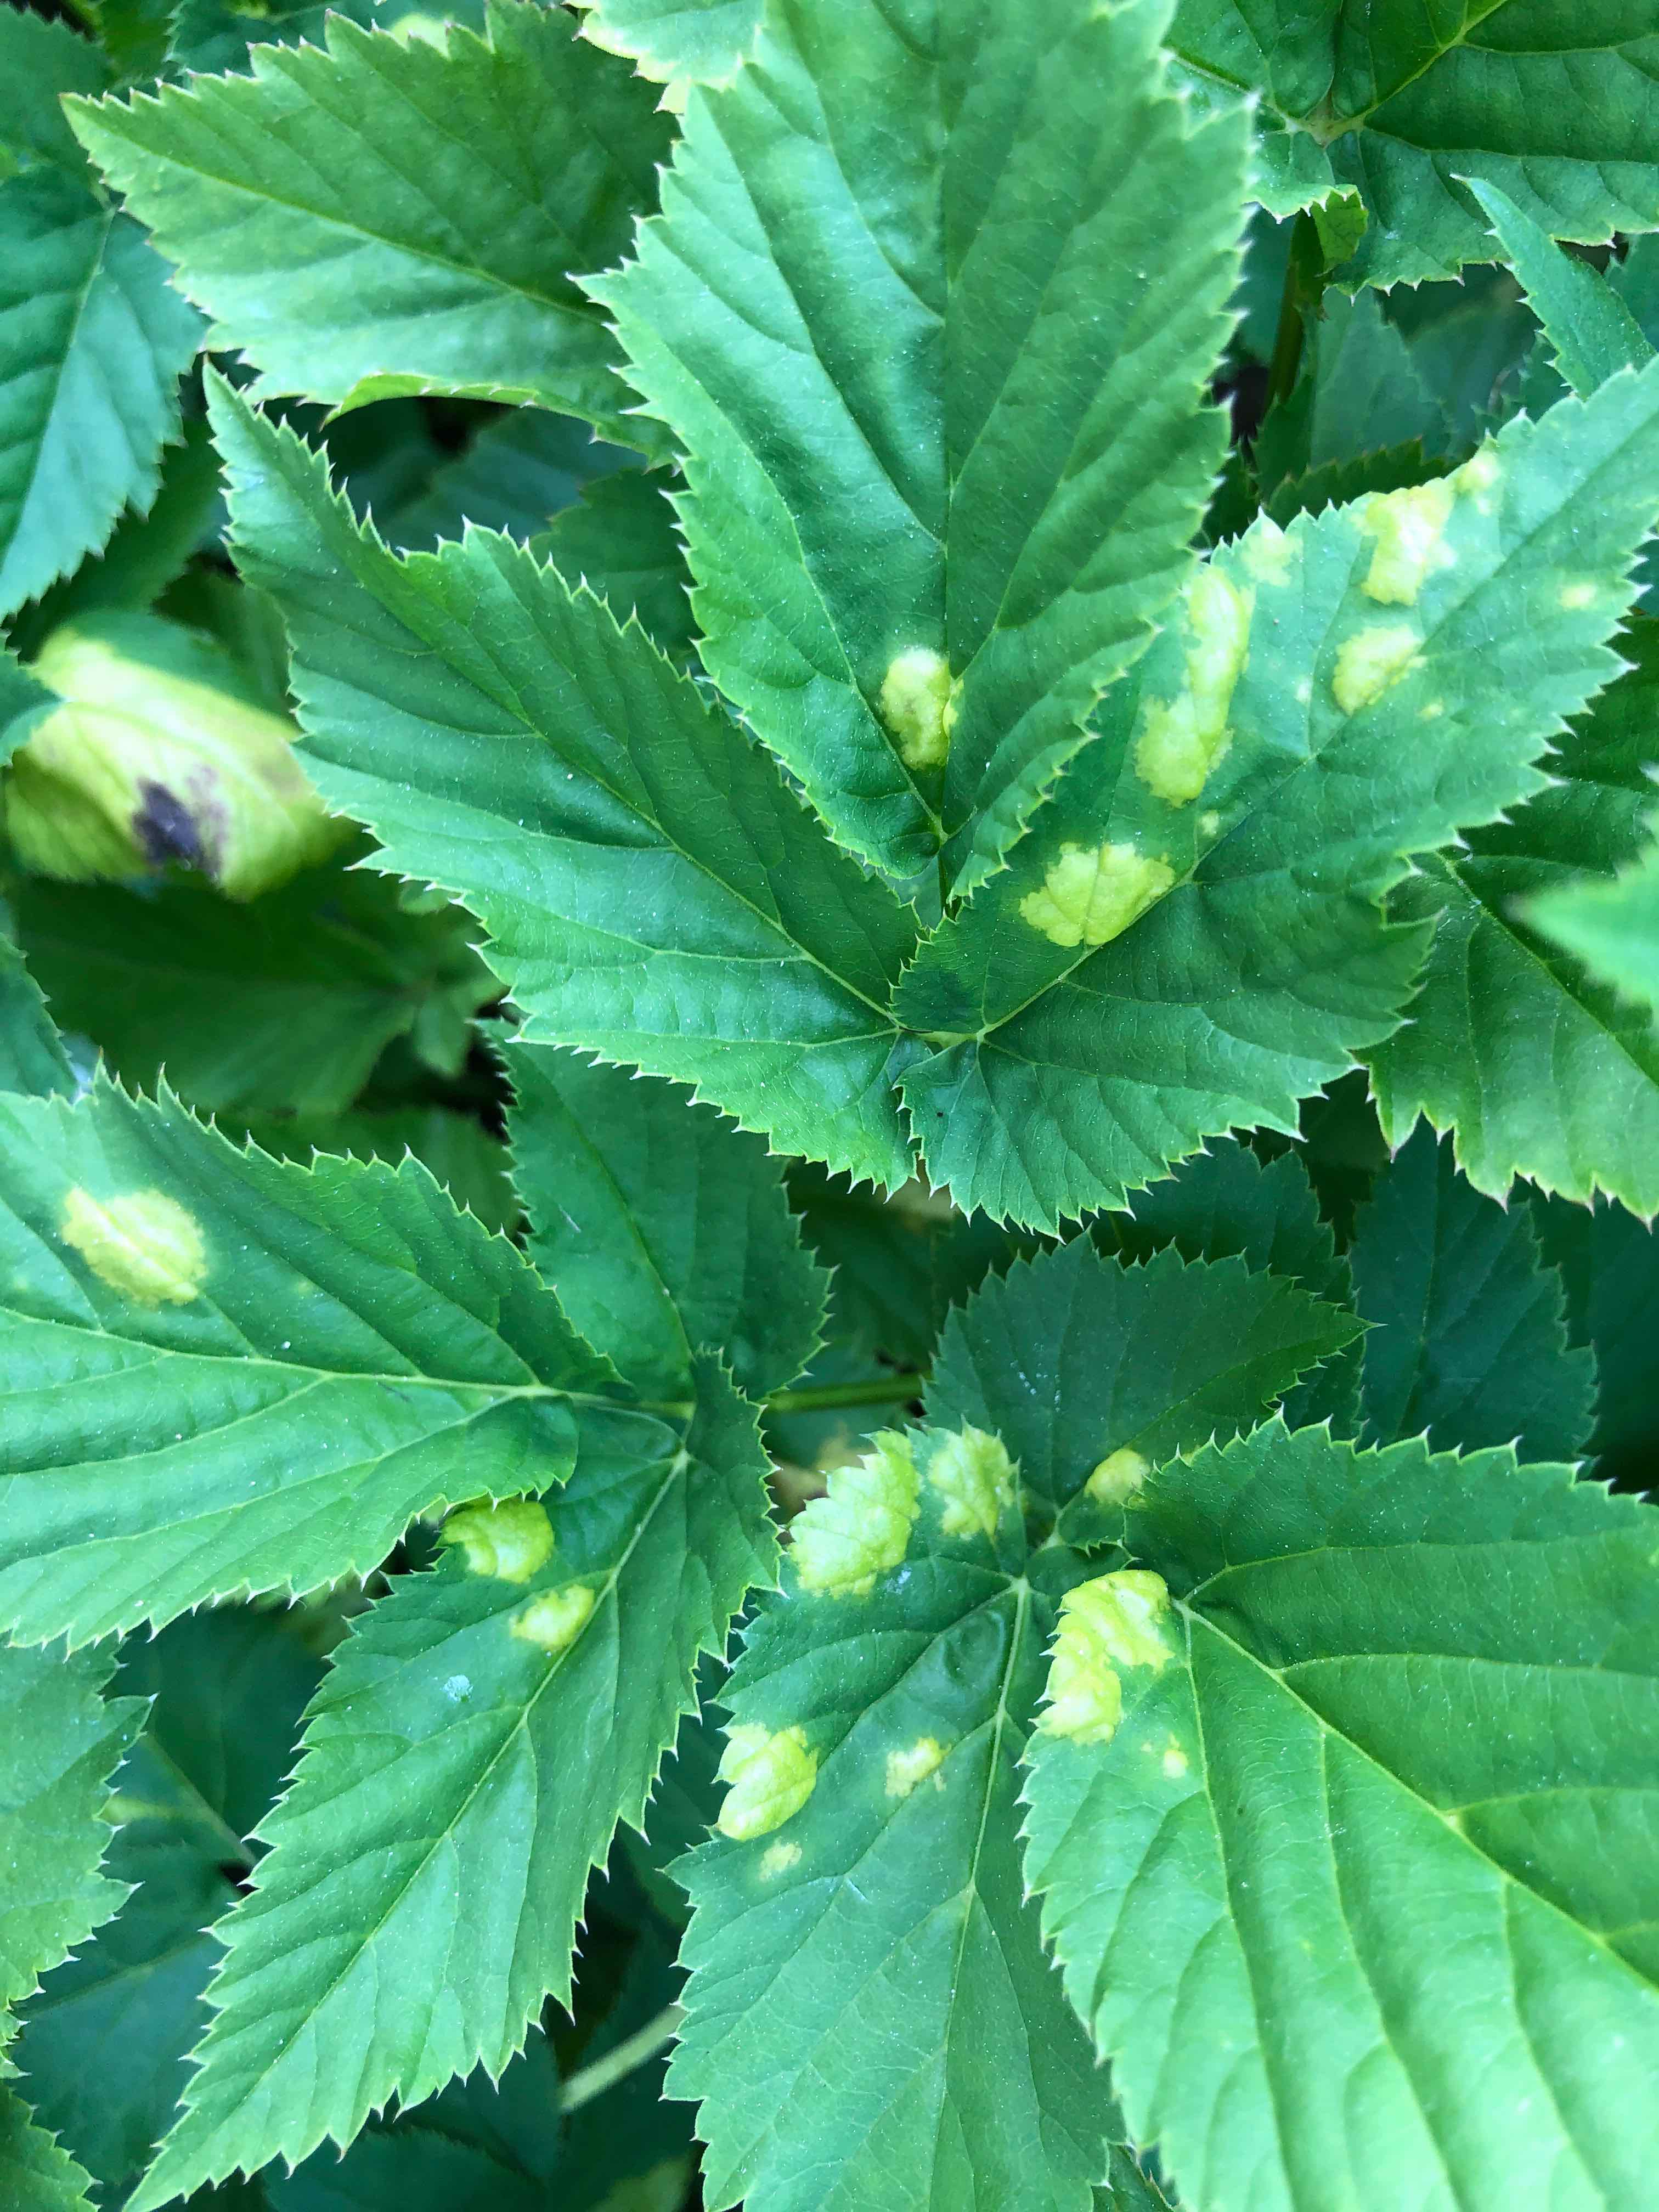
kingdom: Chromista
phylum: Oomycota
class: Peronosporea
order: Peronosporales
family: Peronosporaceae
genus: Peronospora
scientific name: Peronospora crustosa
